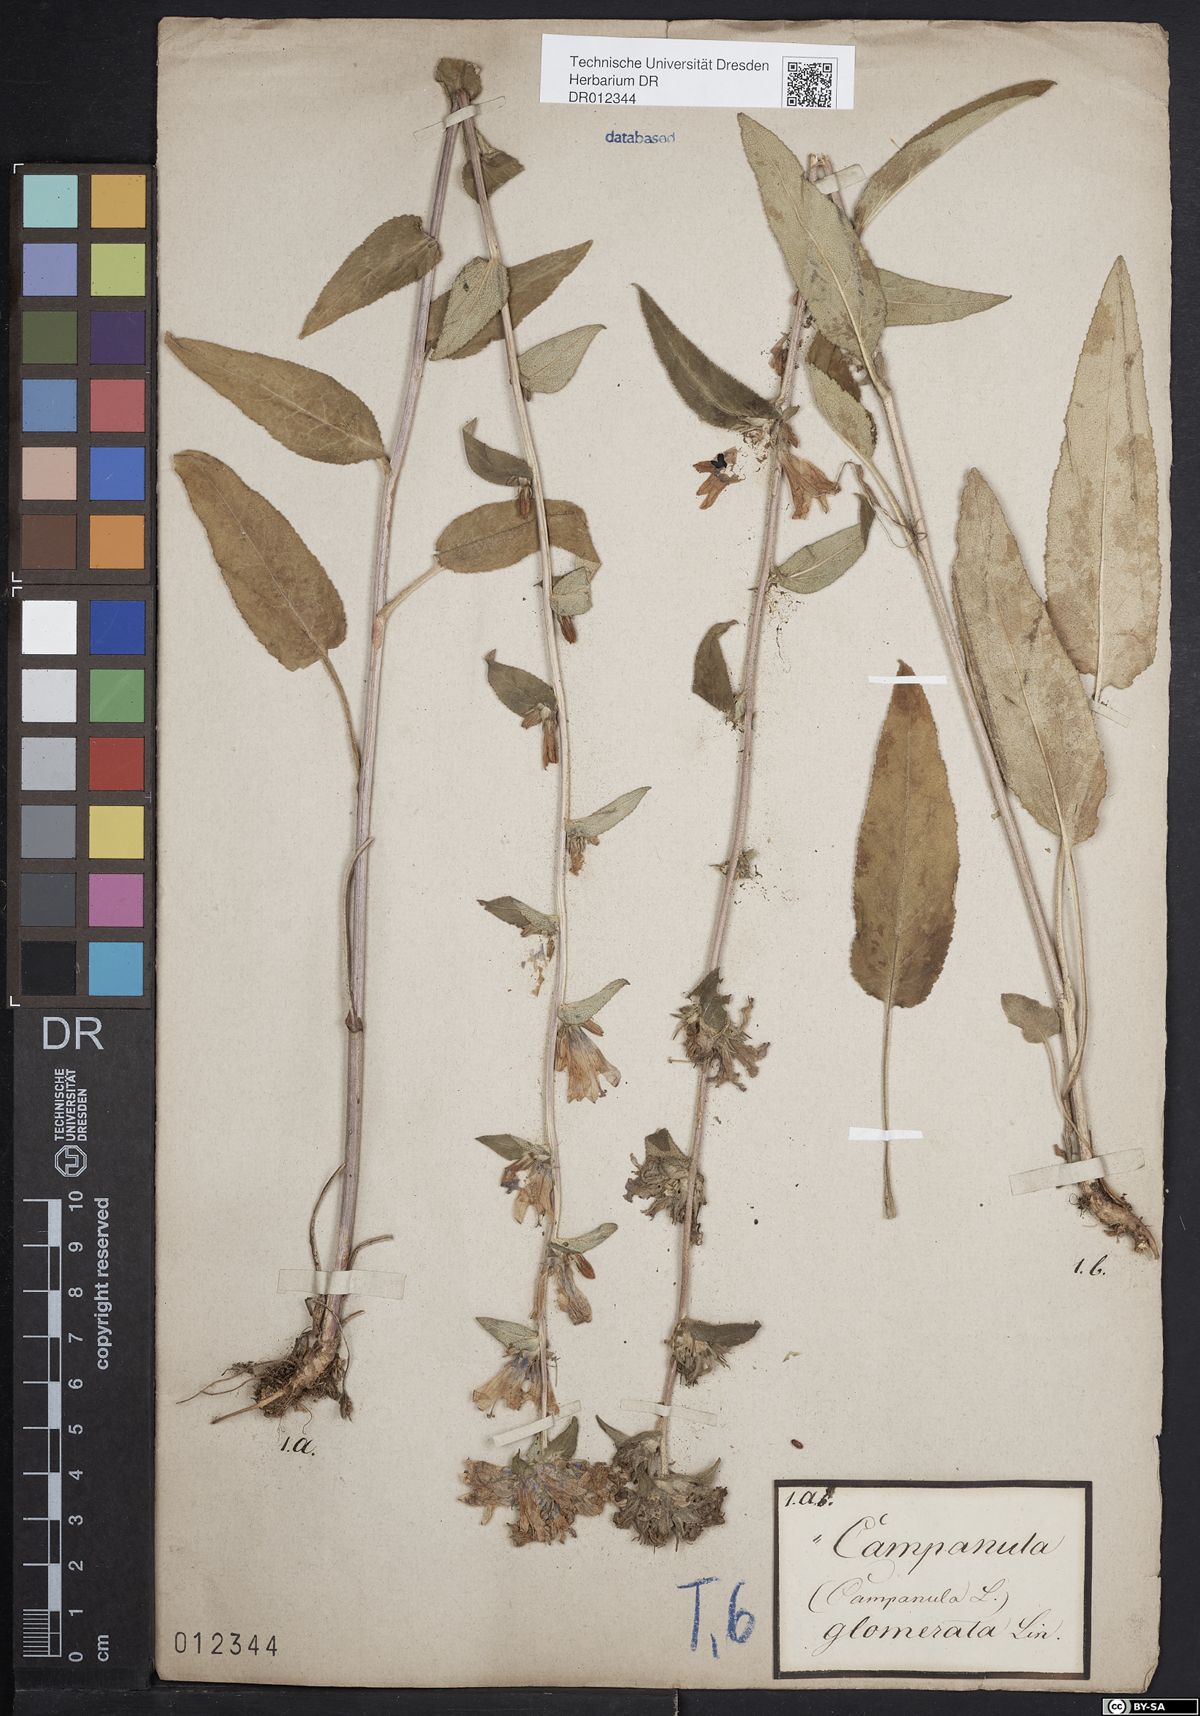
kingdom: Plantae
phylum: Tracheophyta
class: Magnoliopsida
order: Asterales
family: Campanulaceae
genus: Campanula
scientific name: Campanula glomerata
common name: Clustered bellflower
